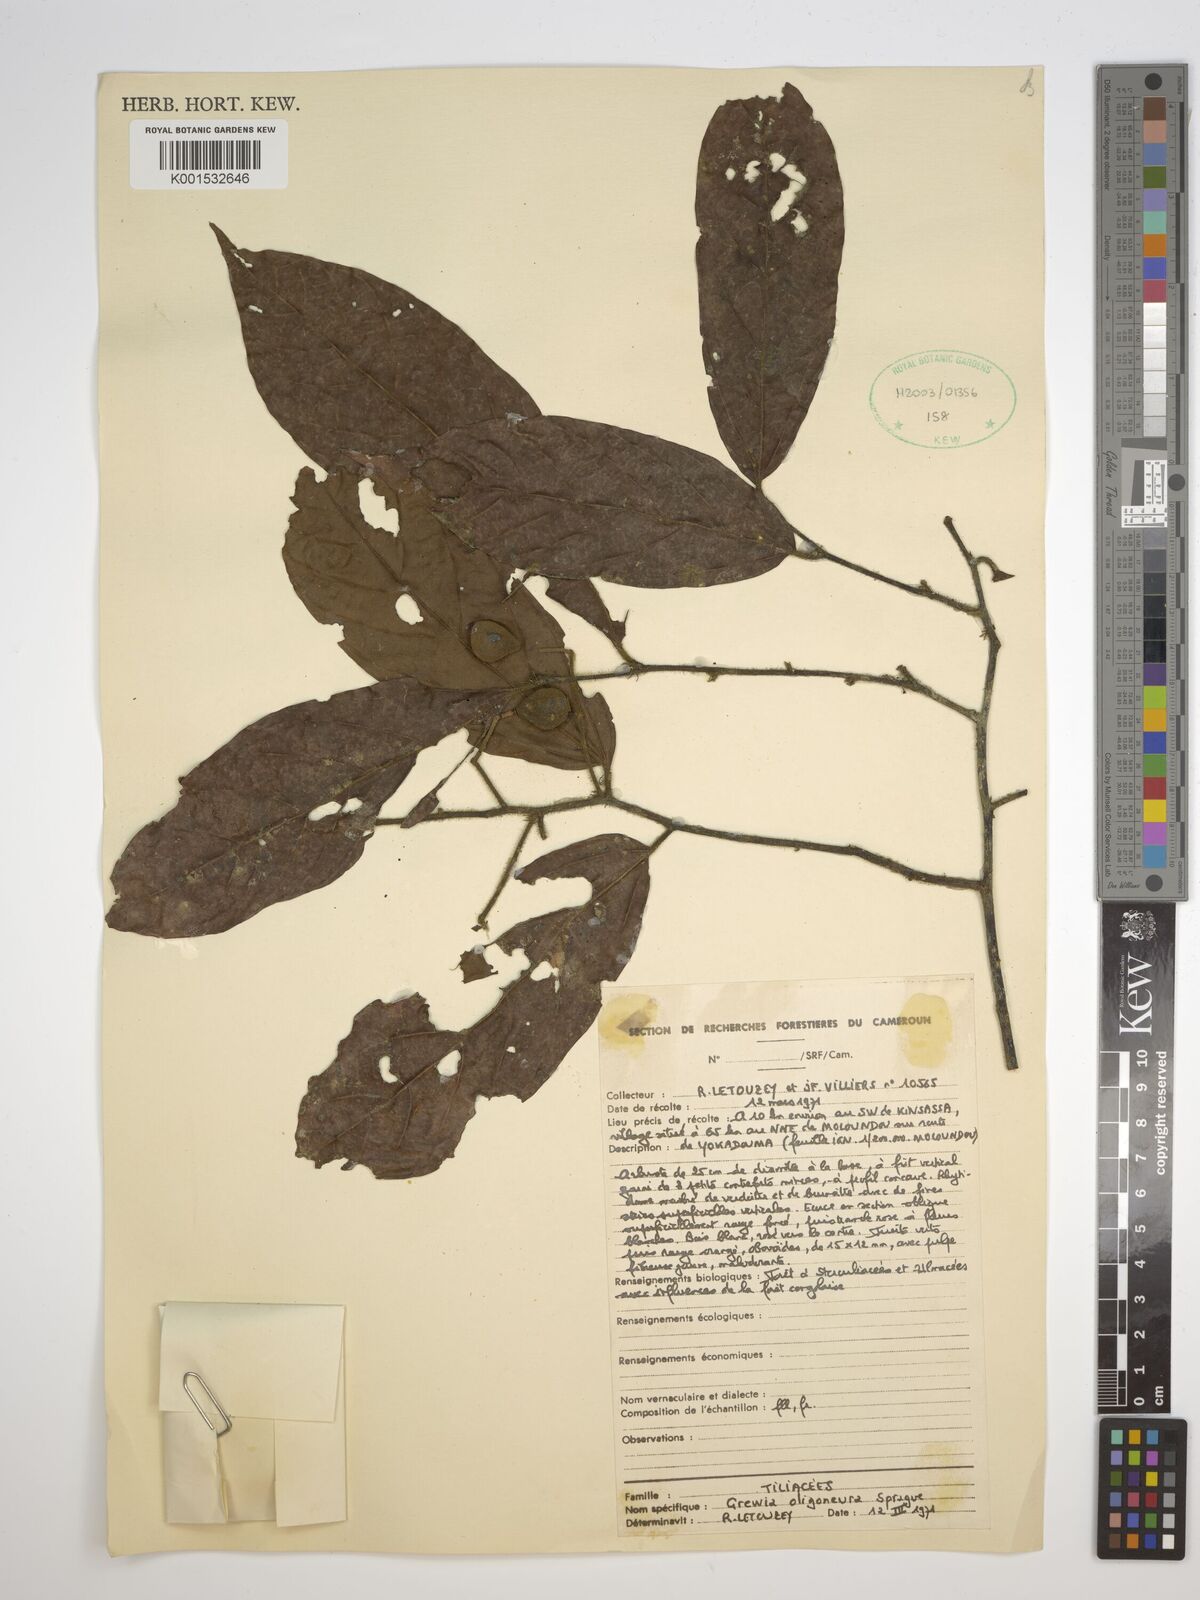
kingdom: Plantae
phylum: Tracheophyta
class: Magnoliopsida
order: Malvales
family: Malvaceae
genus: Microcos
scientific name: Microcos oligoneura
